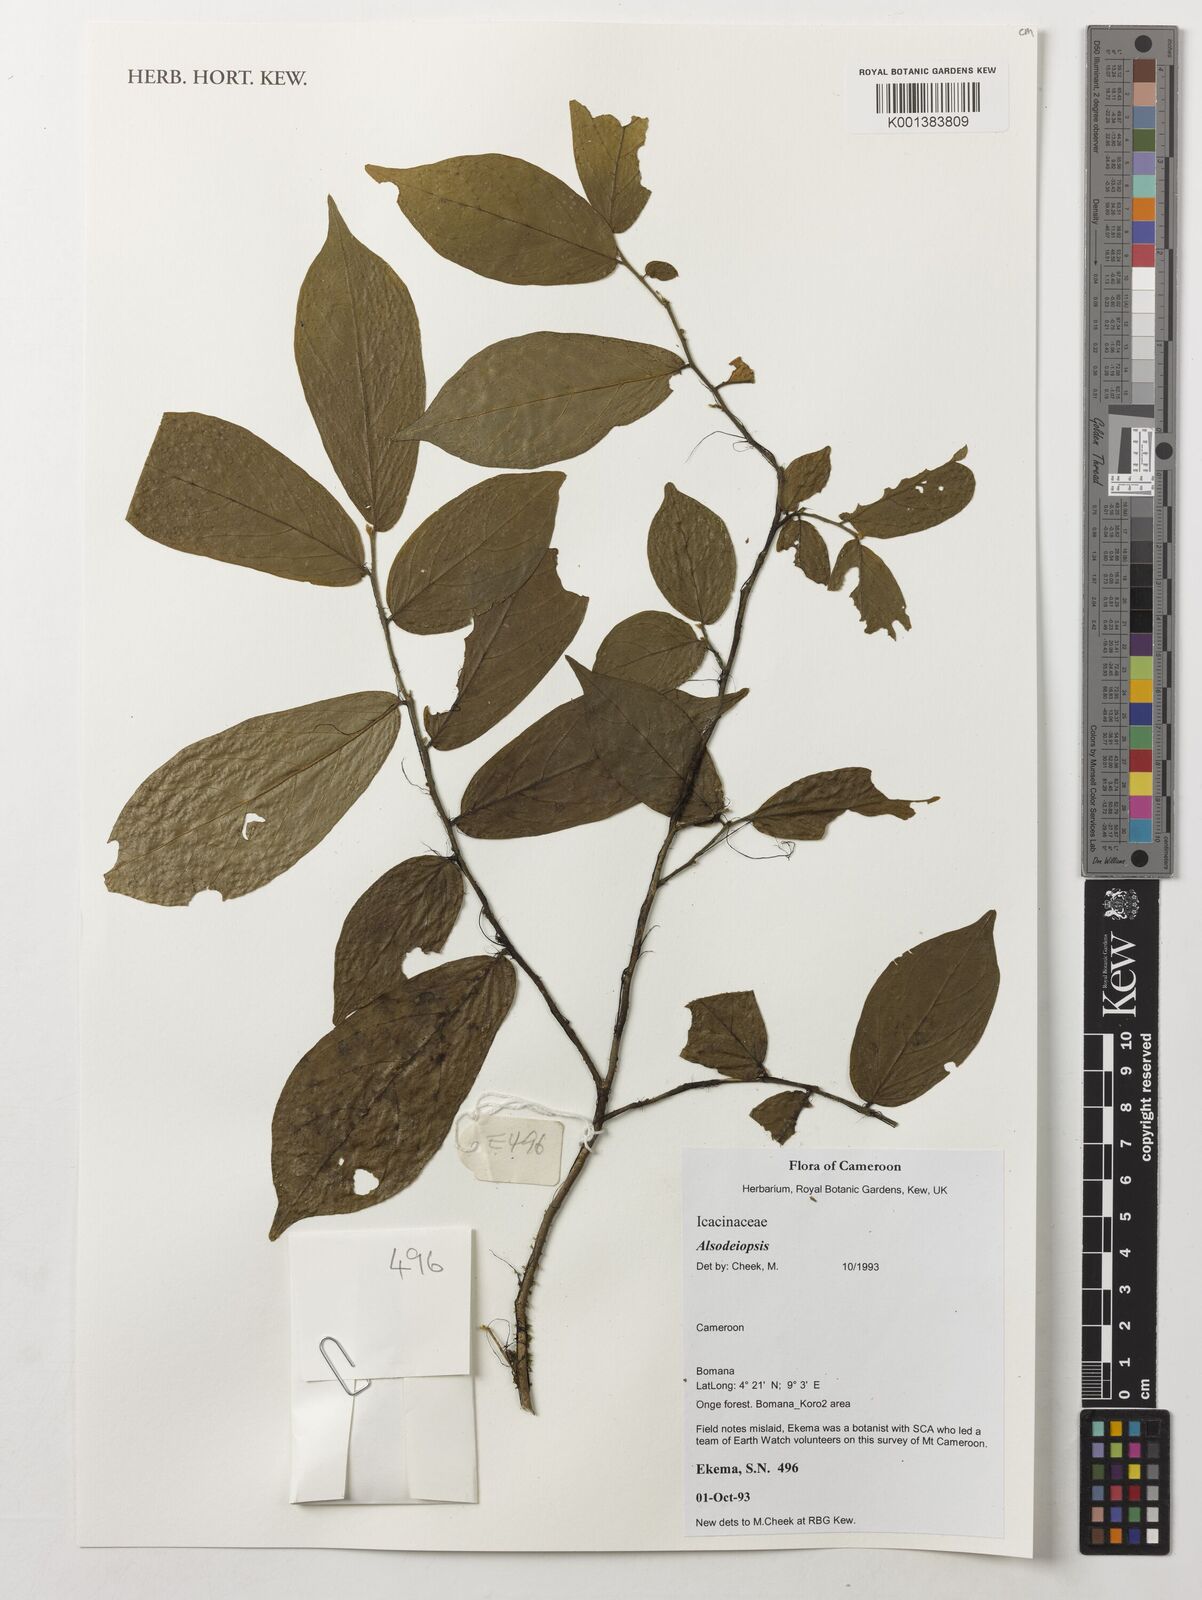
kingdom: Plantae
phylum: Tracheophyta
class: Magnoliopsida
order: Icacinales
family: Icacinaceae
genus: Alsodeiopsis
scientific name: Alsodeiopsis
